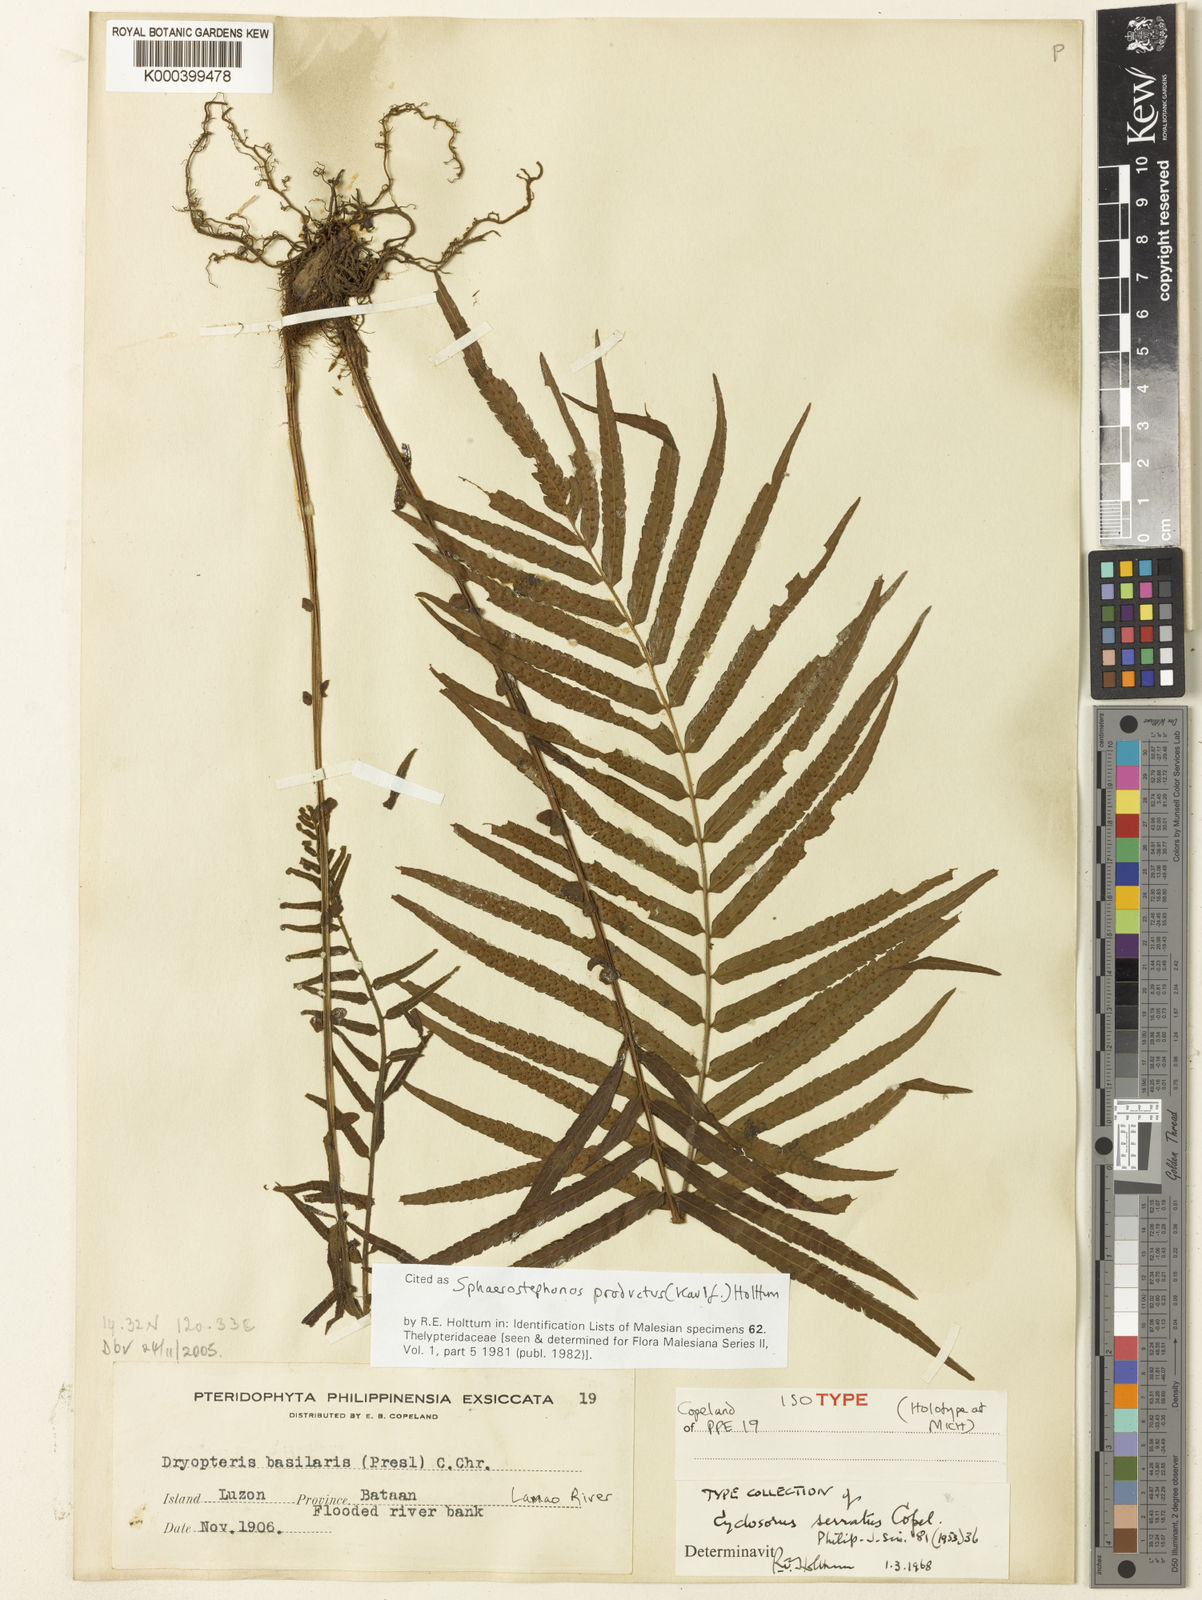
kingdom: Plantae
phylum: Tracheophyta
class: Polypodiopsida
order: Polypodiales
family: Thelypteridaceae
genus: Sphaerostephanos
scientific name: Sphaerostephanos productus
